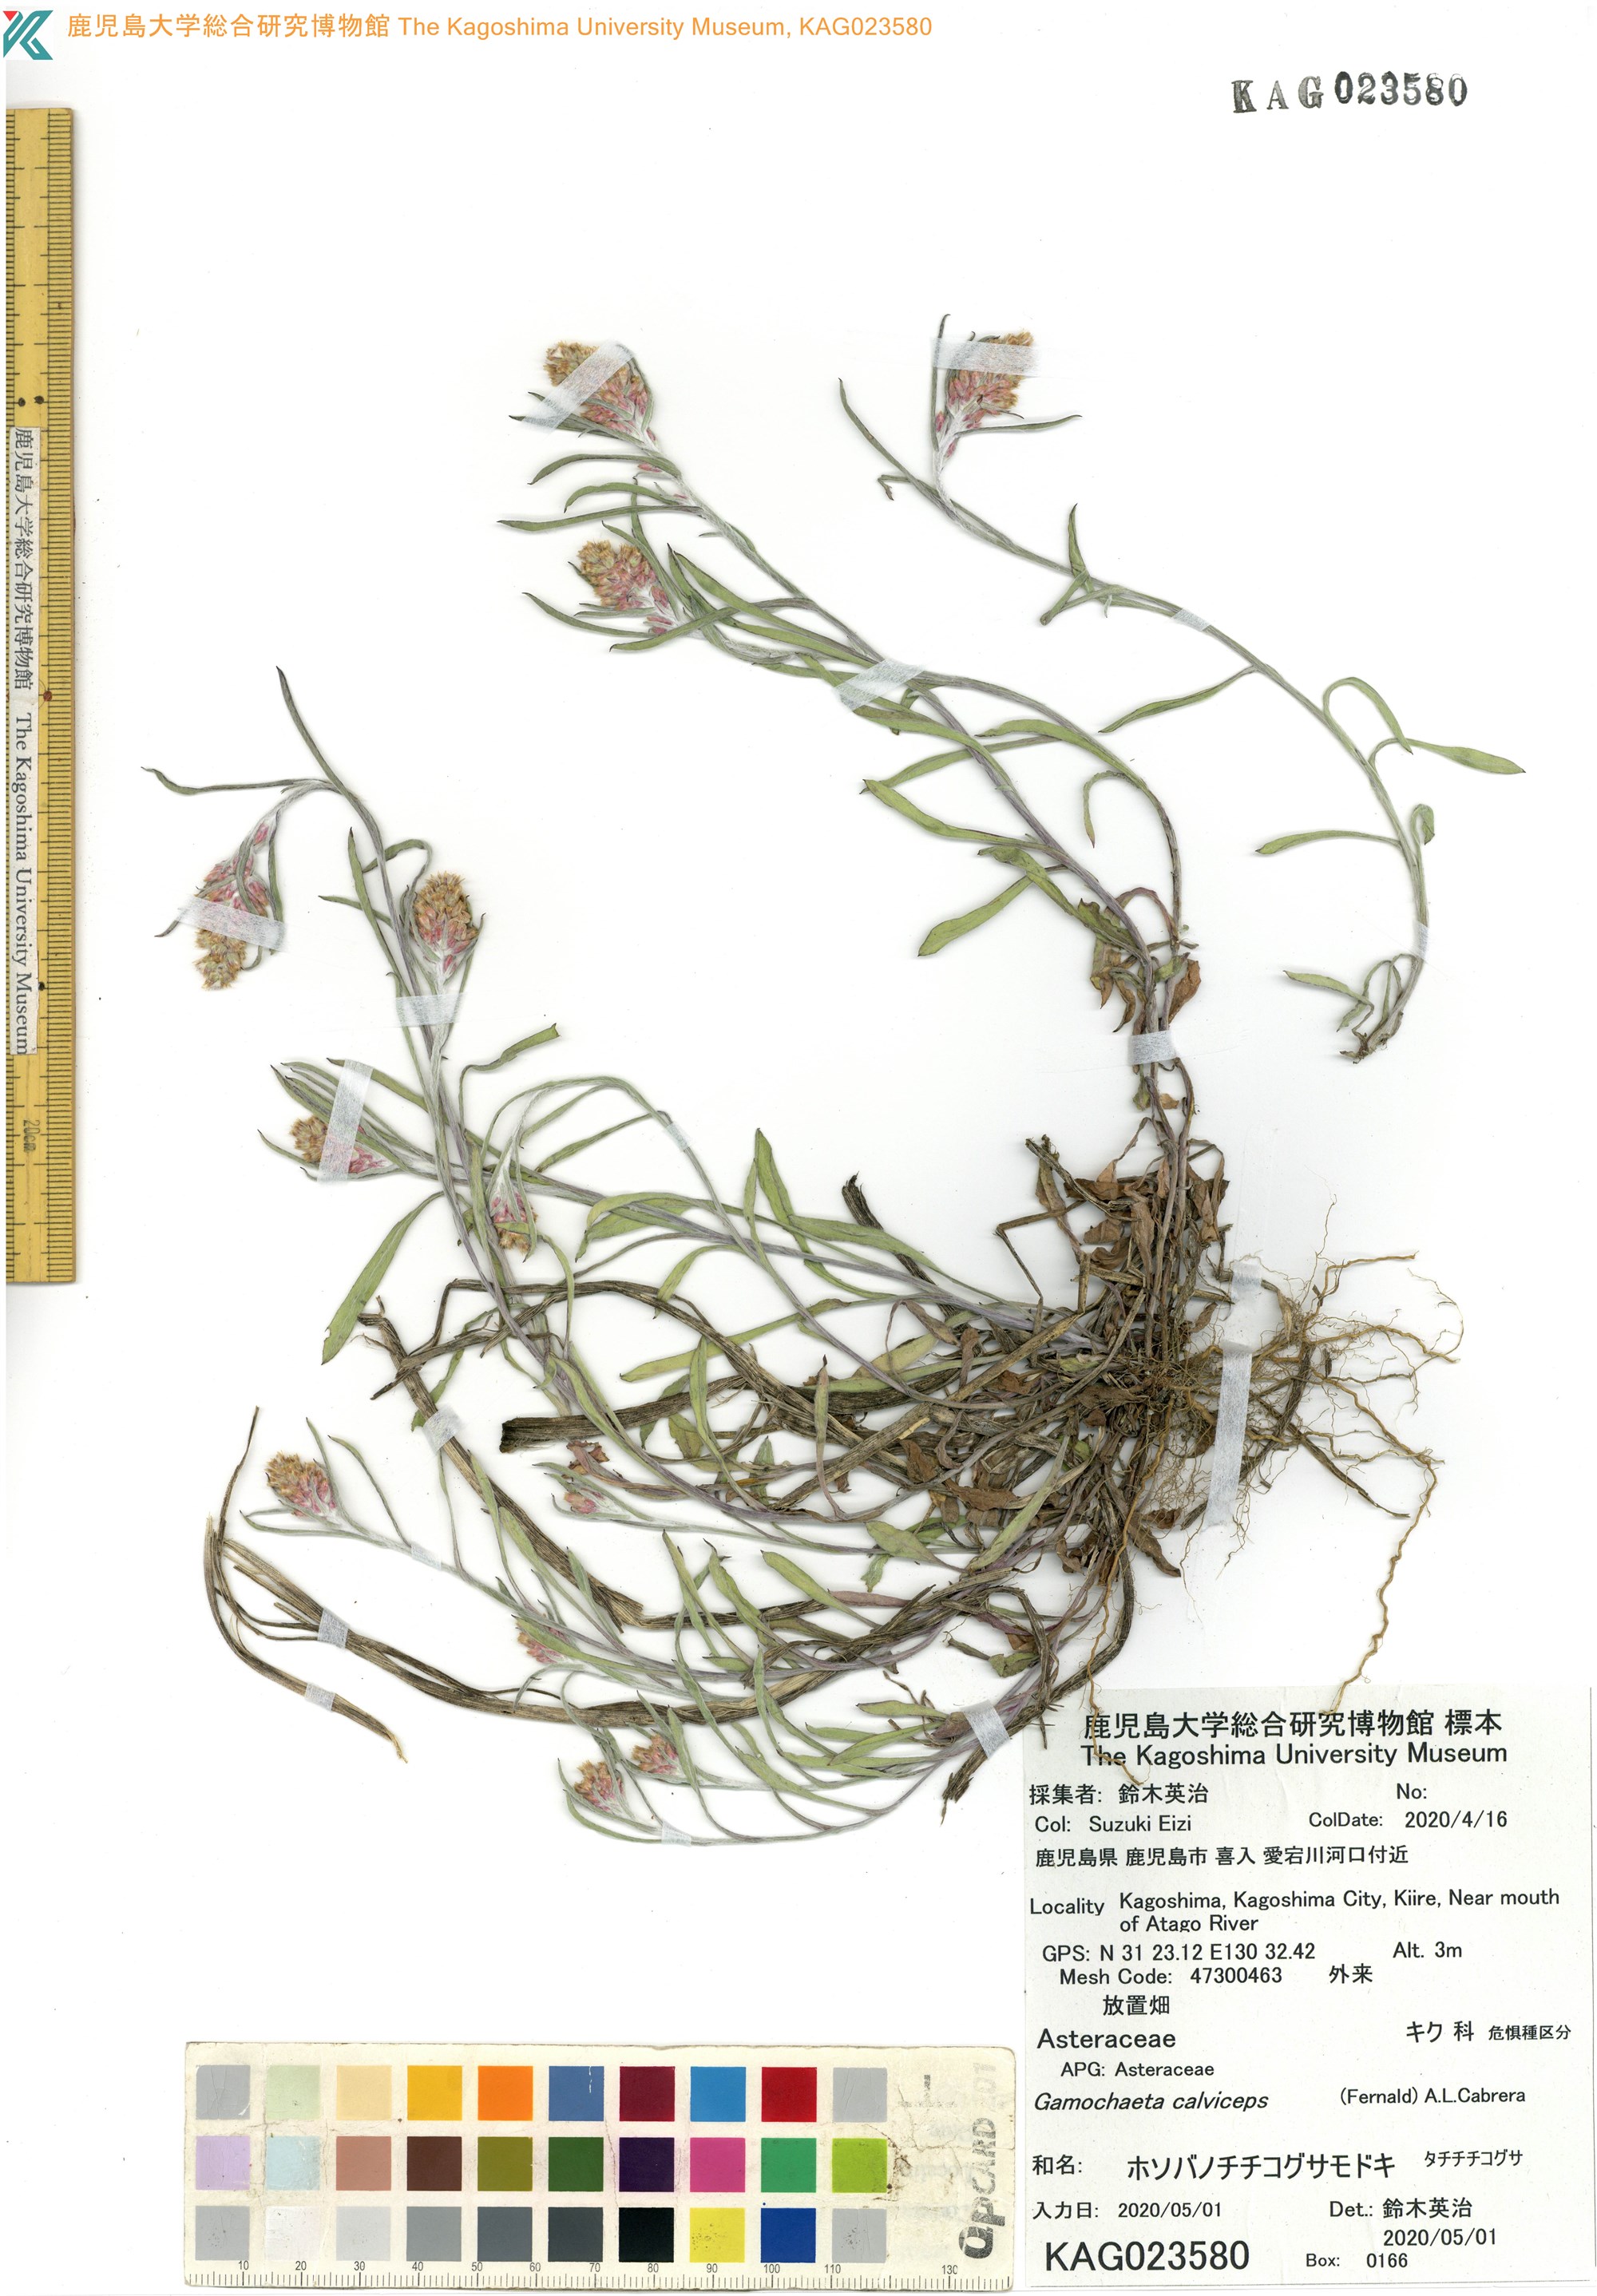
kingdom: Plantae
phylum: Tracheophyta
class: Magnoliopsida
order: Asterales
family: Asteraceae
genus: Gamochaeta
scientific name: Gamochaeta purpurea
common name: Purple cudweed
